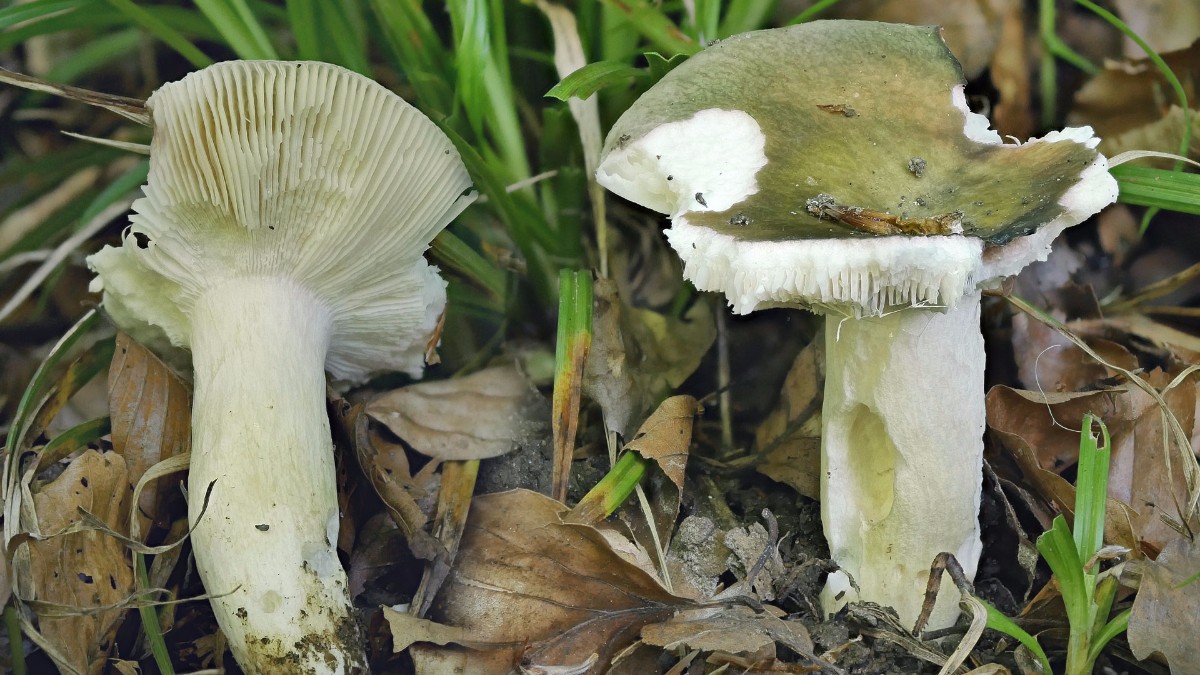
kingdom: Fungi
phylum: Basidiomycota
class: Agaricomycetes
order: Russulales
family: Russulaceae
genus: Russula
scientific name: Russula
